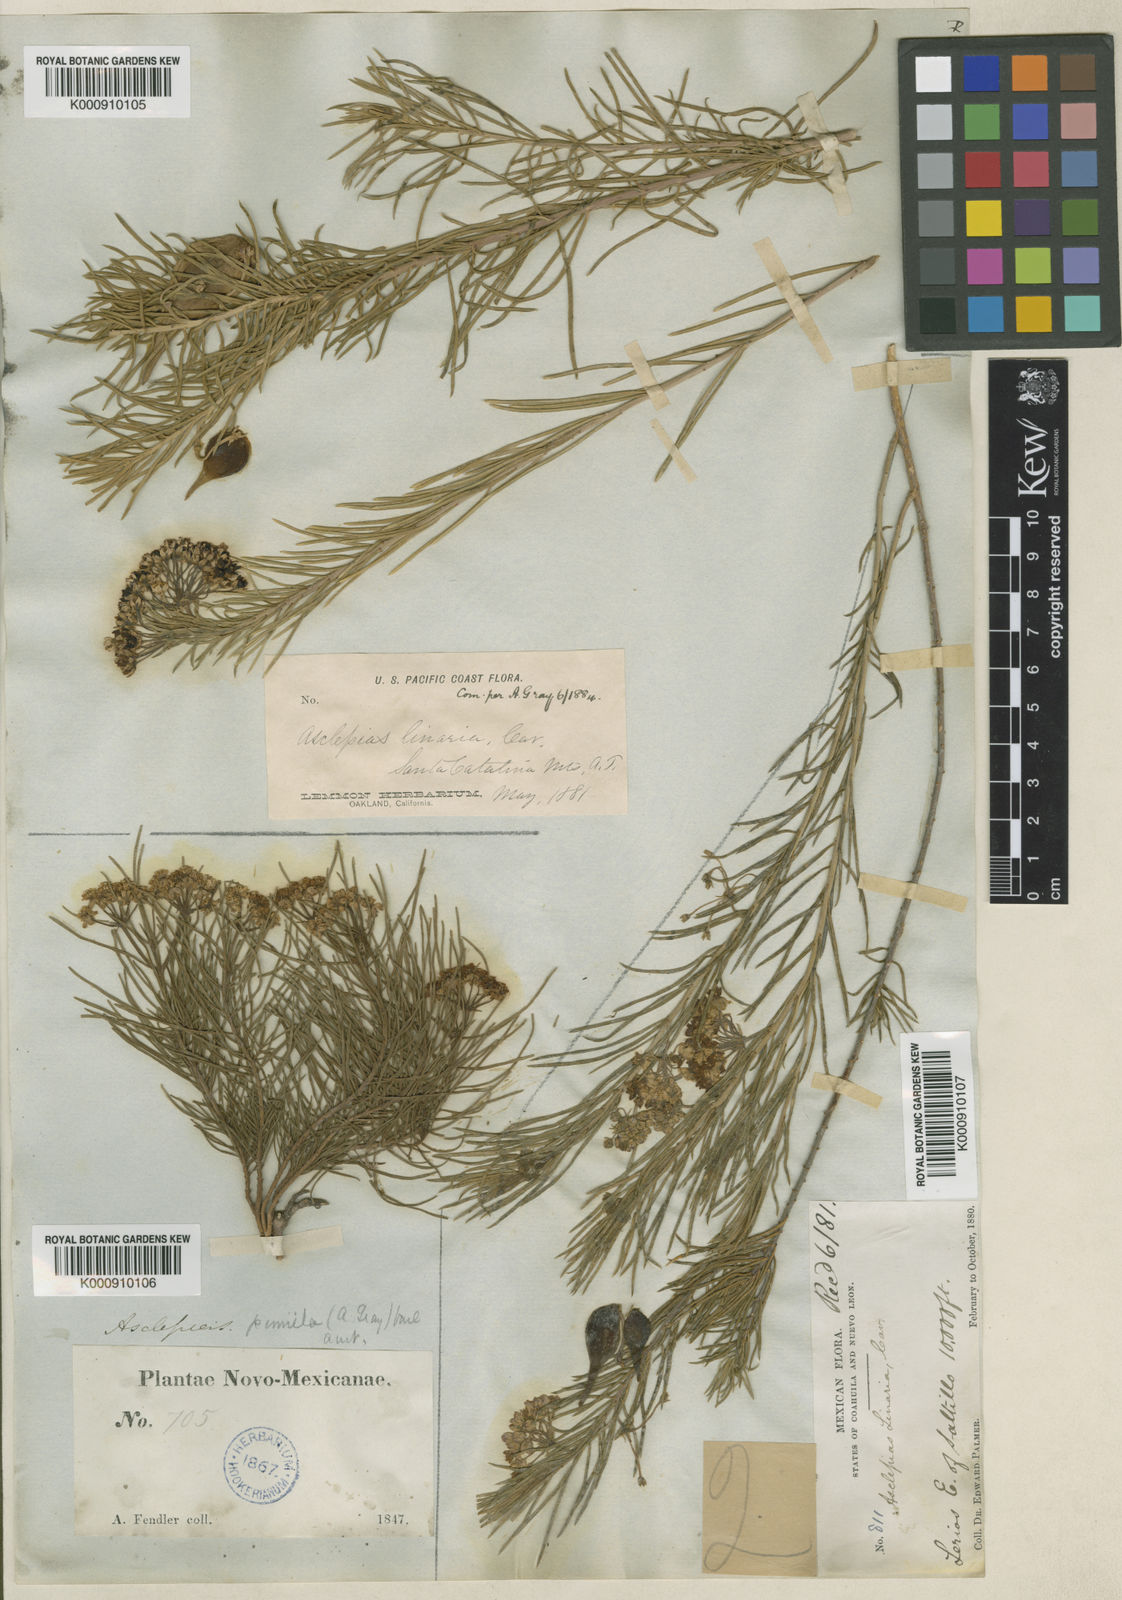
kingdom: Plantae
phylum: Tracheophyta
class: Magnoliopsida
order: Gentianales
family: Apocynaceae
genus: Asclepias
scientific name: Asclepias pumila
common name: Dwarf milkweed
